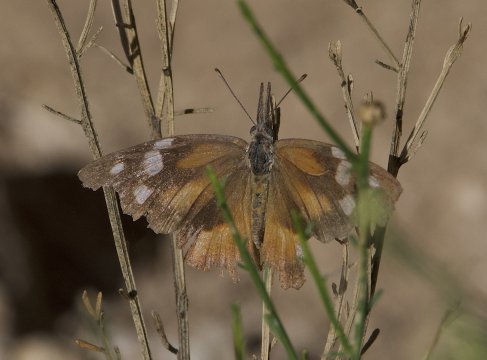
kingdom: Animalia
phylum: Arthropoda
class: Insecta
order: Lepidoptera
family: Nymphalidae
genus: Libytheana
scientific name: Libytheana carinenta
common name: American Snout
